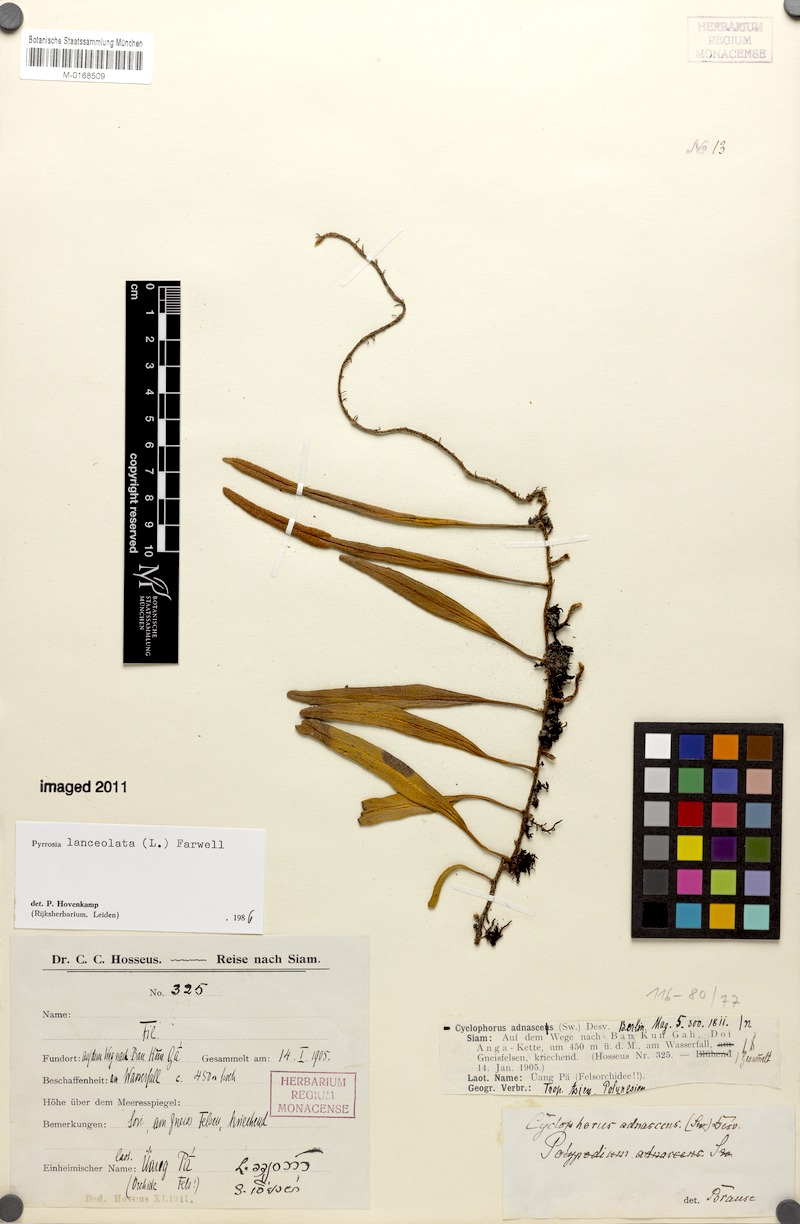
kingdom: Plantae
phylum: Tracheophyta
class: Polypodiopsida
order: Polypodiales
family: Polypodiaceae
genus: Pyrrosia
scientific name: Pyrrosia lanceolata
